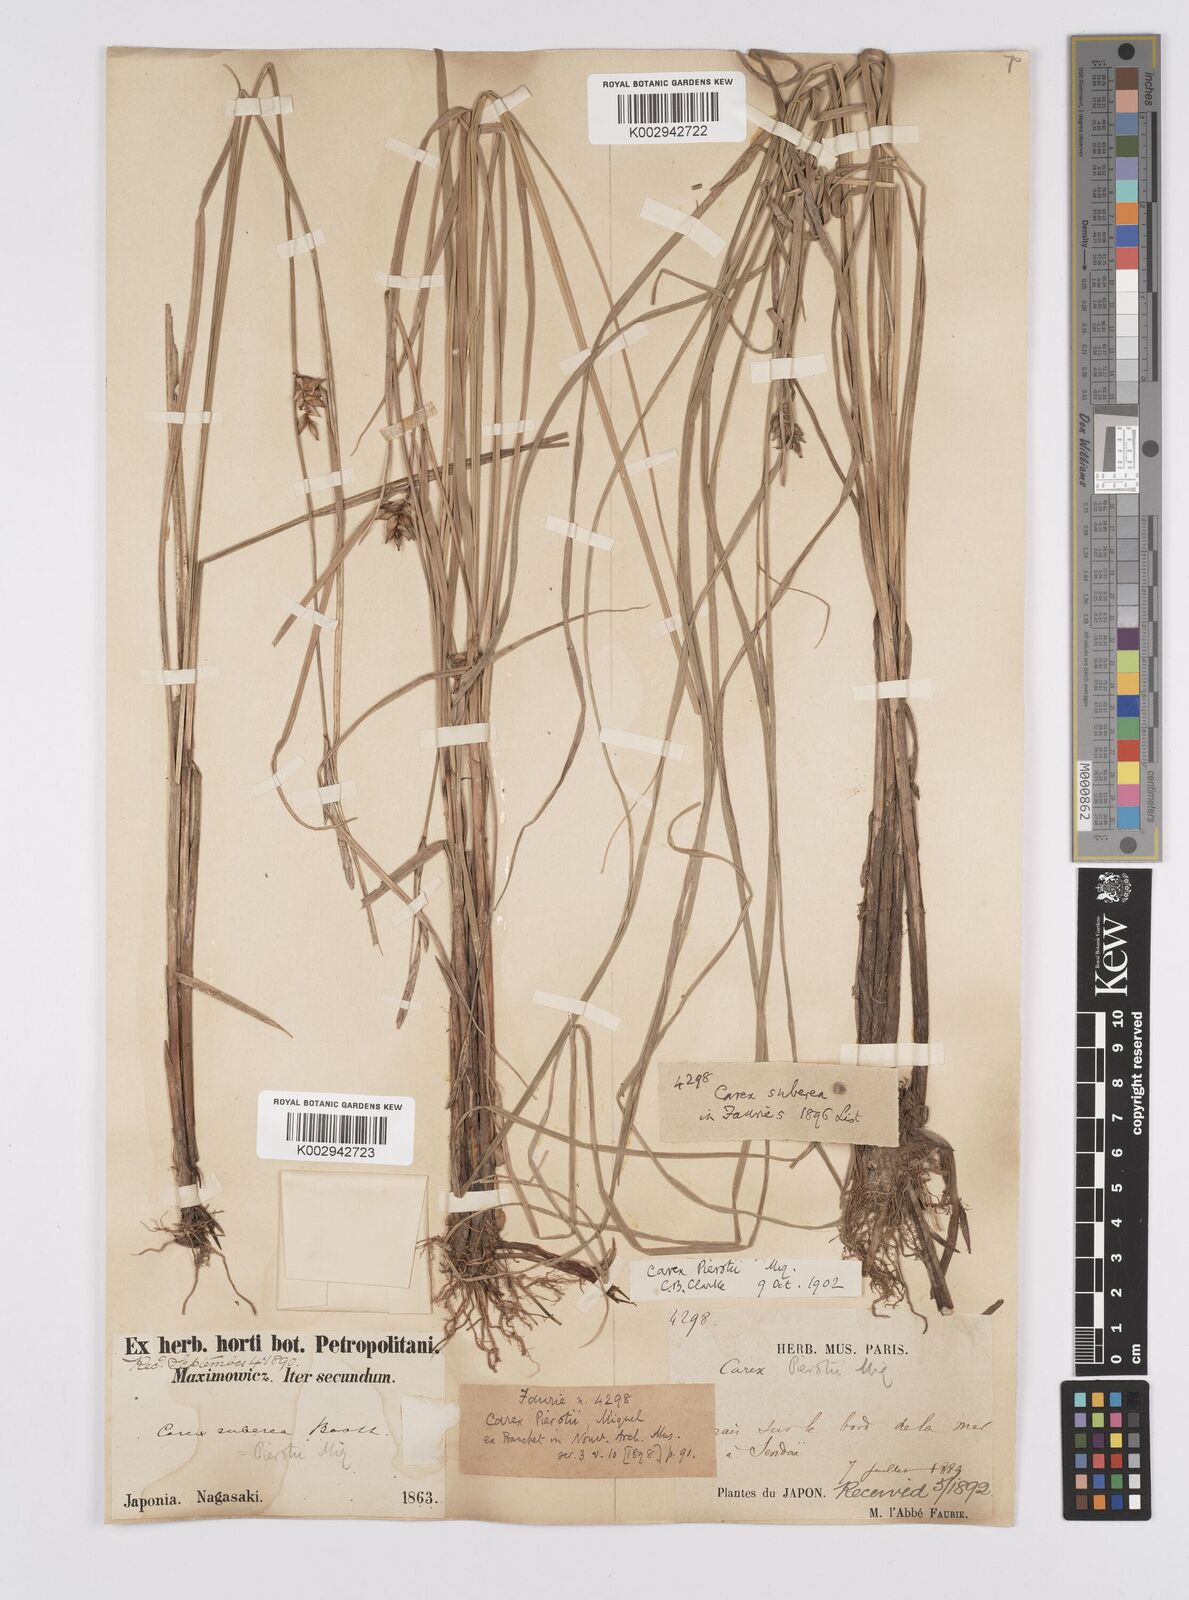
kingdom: Plantae
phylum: Tracheophyta
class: Liliopsida
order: Poales
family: Cyperaceae
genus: Carex
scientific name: Carex scabrifolia
